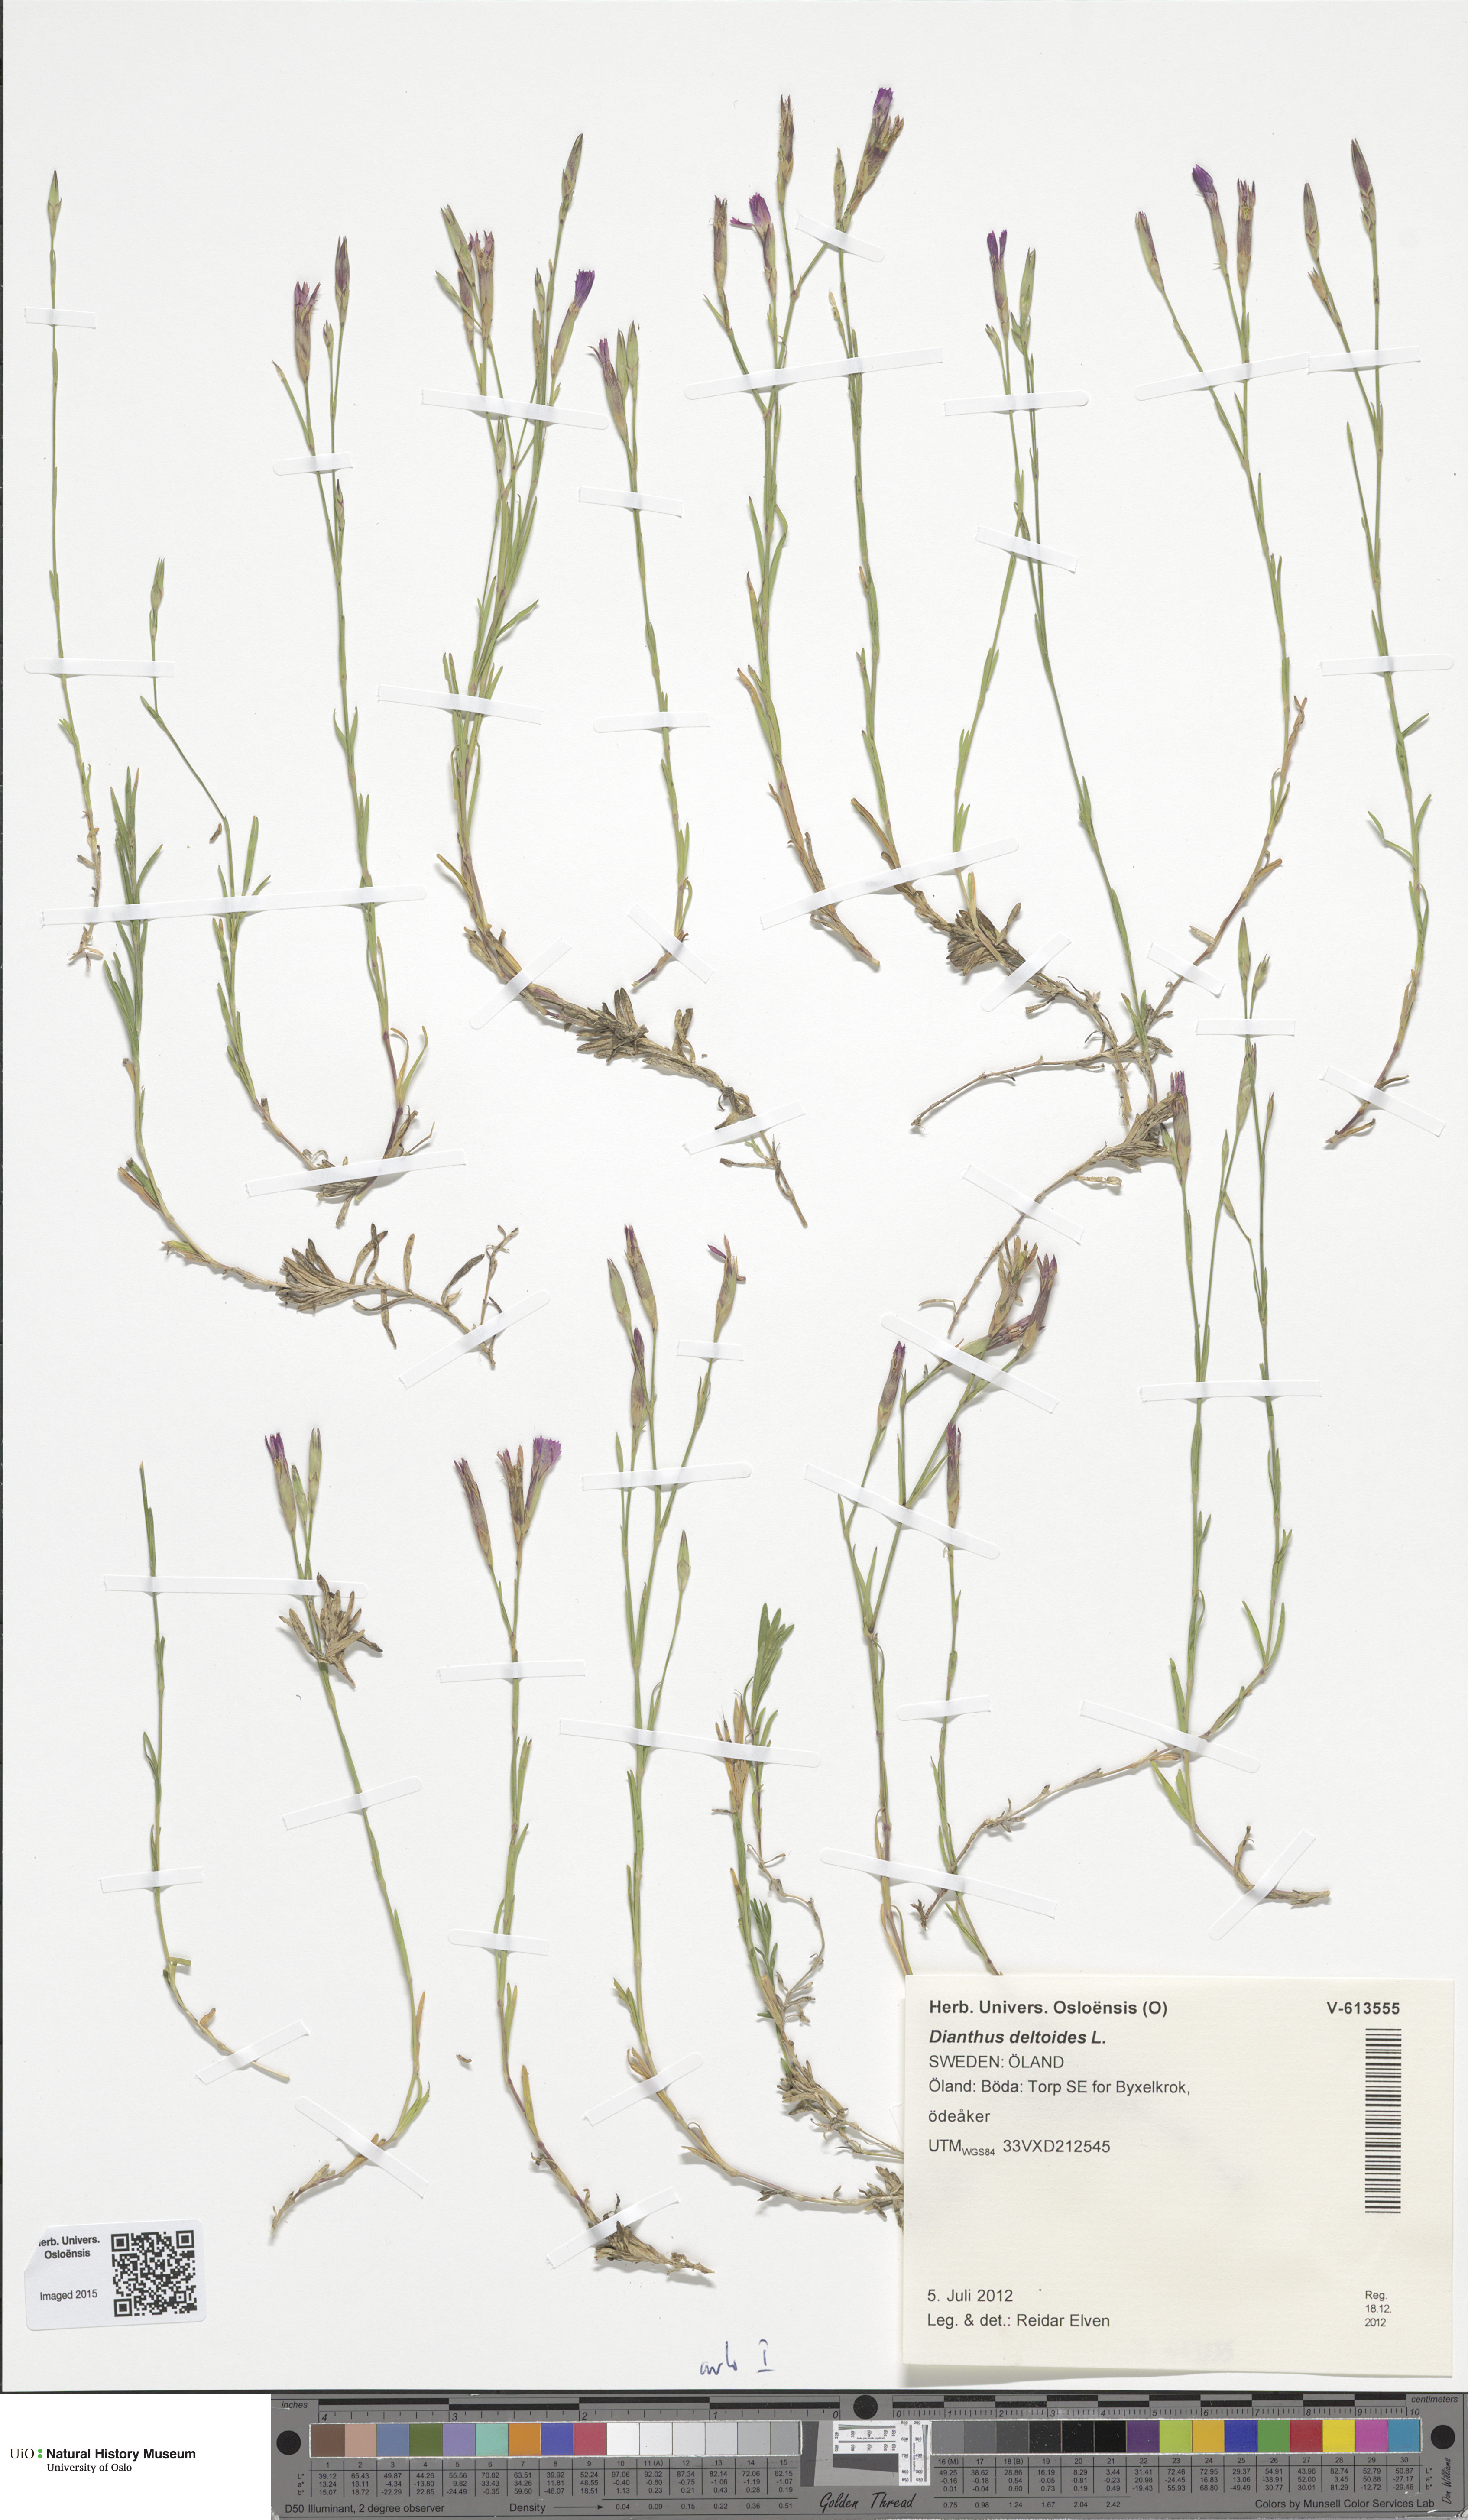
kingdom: Plantae
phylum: Tracheophyta
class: Magnoliopsida
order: Caryophyllales
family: Caryophyllaceae
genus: Dianthus
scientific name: Dianthus deltoides
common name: Maiden pink
